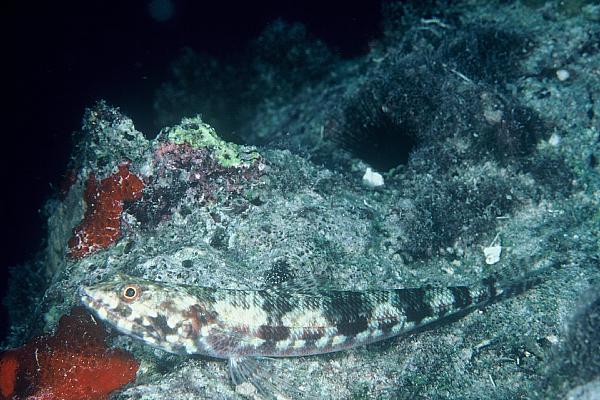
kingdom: Animalia
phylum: Chordata
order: Aulopiformes
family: Synodontidae
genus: Synodus
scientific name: Synodus variegatus
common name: Variegated lizardfish
